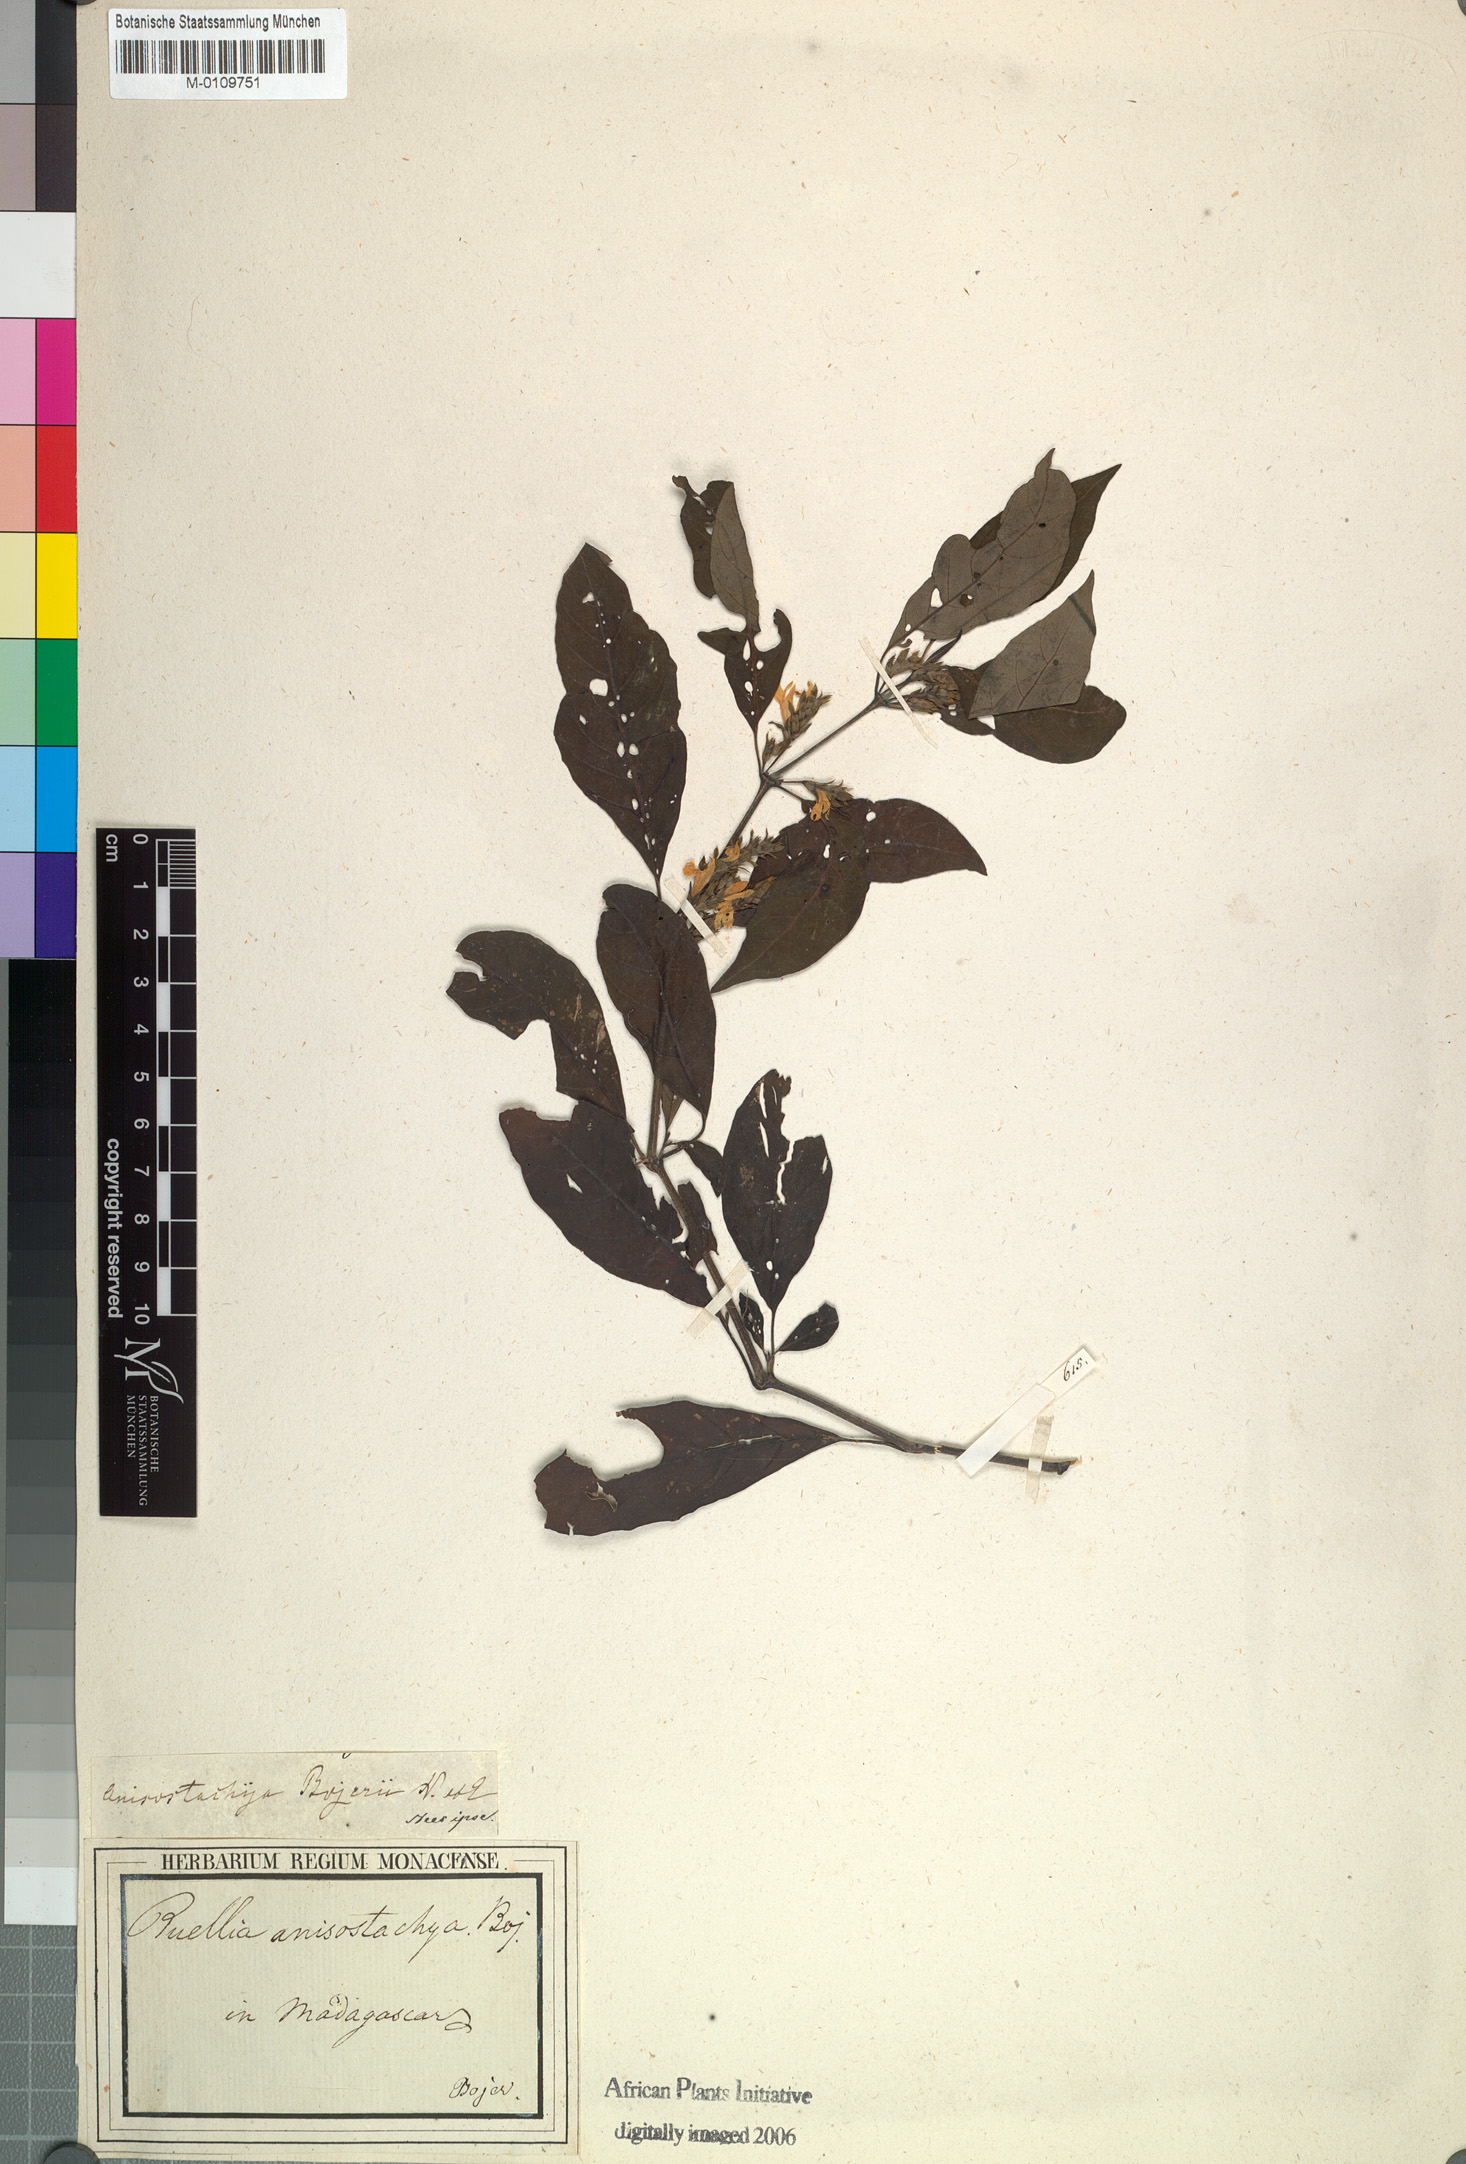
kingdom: Plantae
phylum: Tracheophyta
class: Magnoliopsida
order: Lamiales
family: Acanthaceae
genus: Anisostachya
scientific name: Anisostachya bojeri
